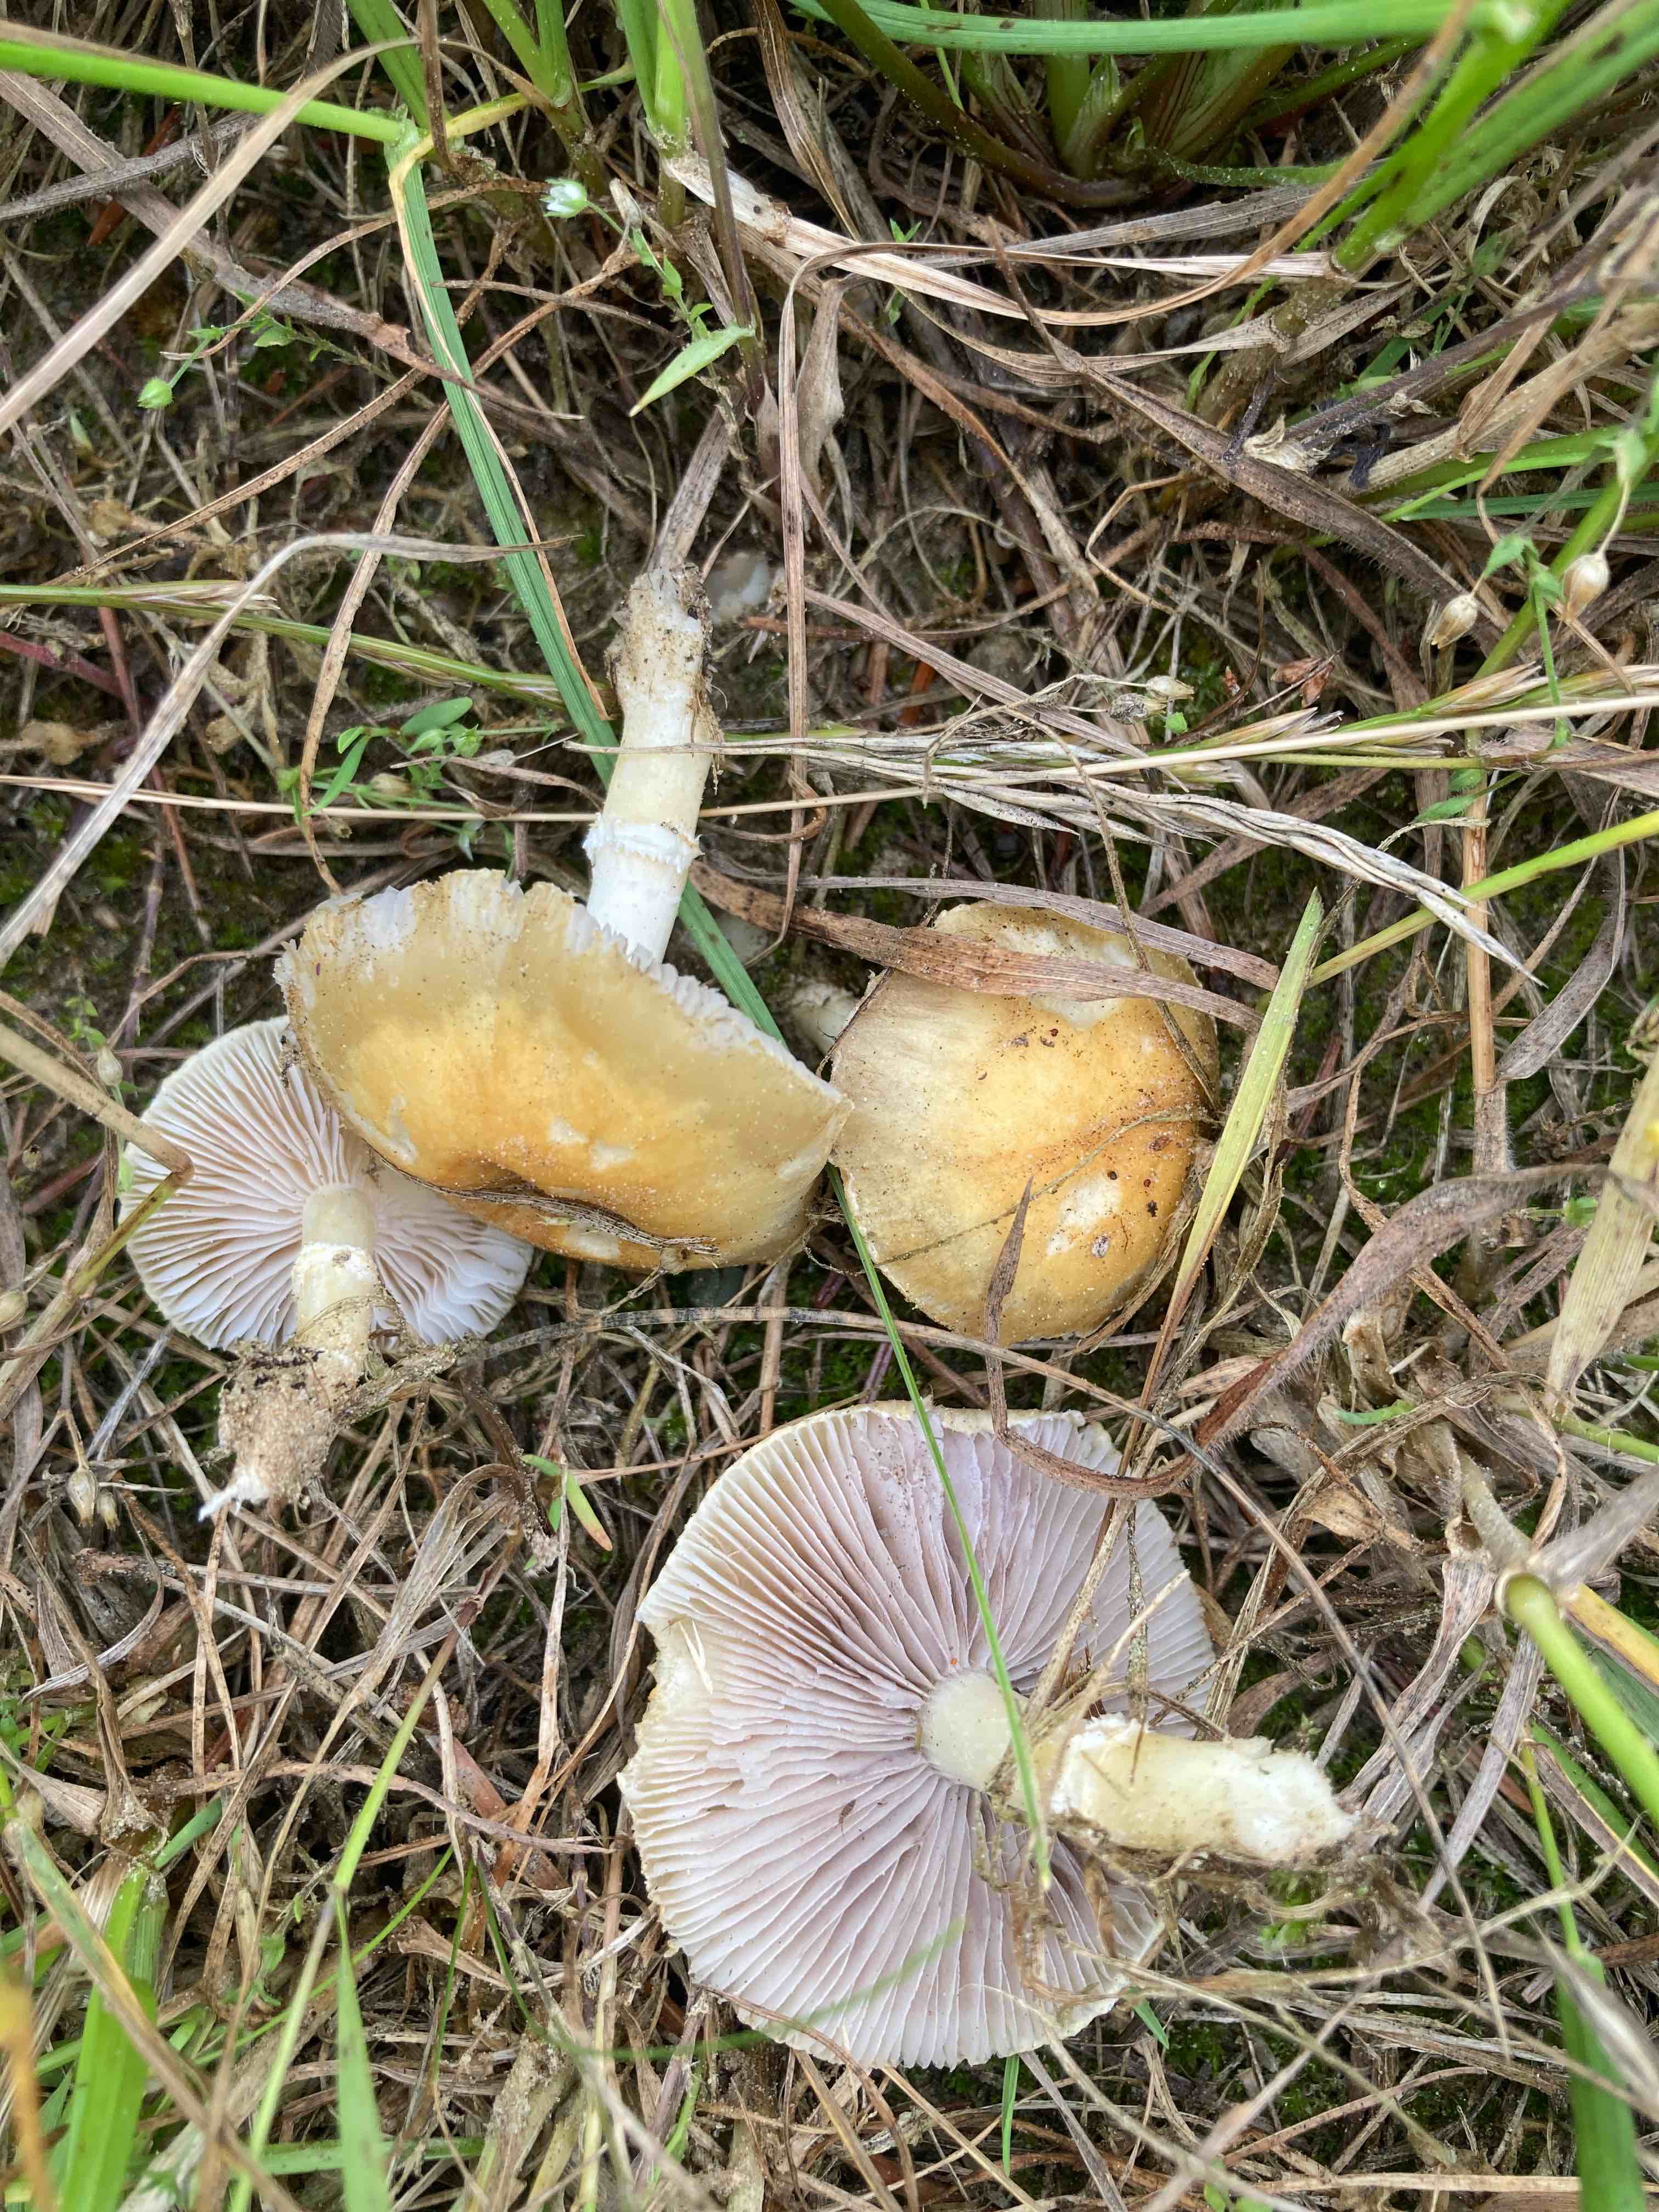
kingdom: Fungi
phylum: Basidiomycota
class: Agaricomycetes
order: Agaricales
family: Hymenogastraceae
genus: Psilocybe
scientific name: Psilocybe coronilla
